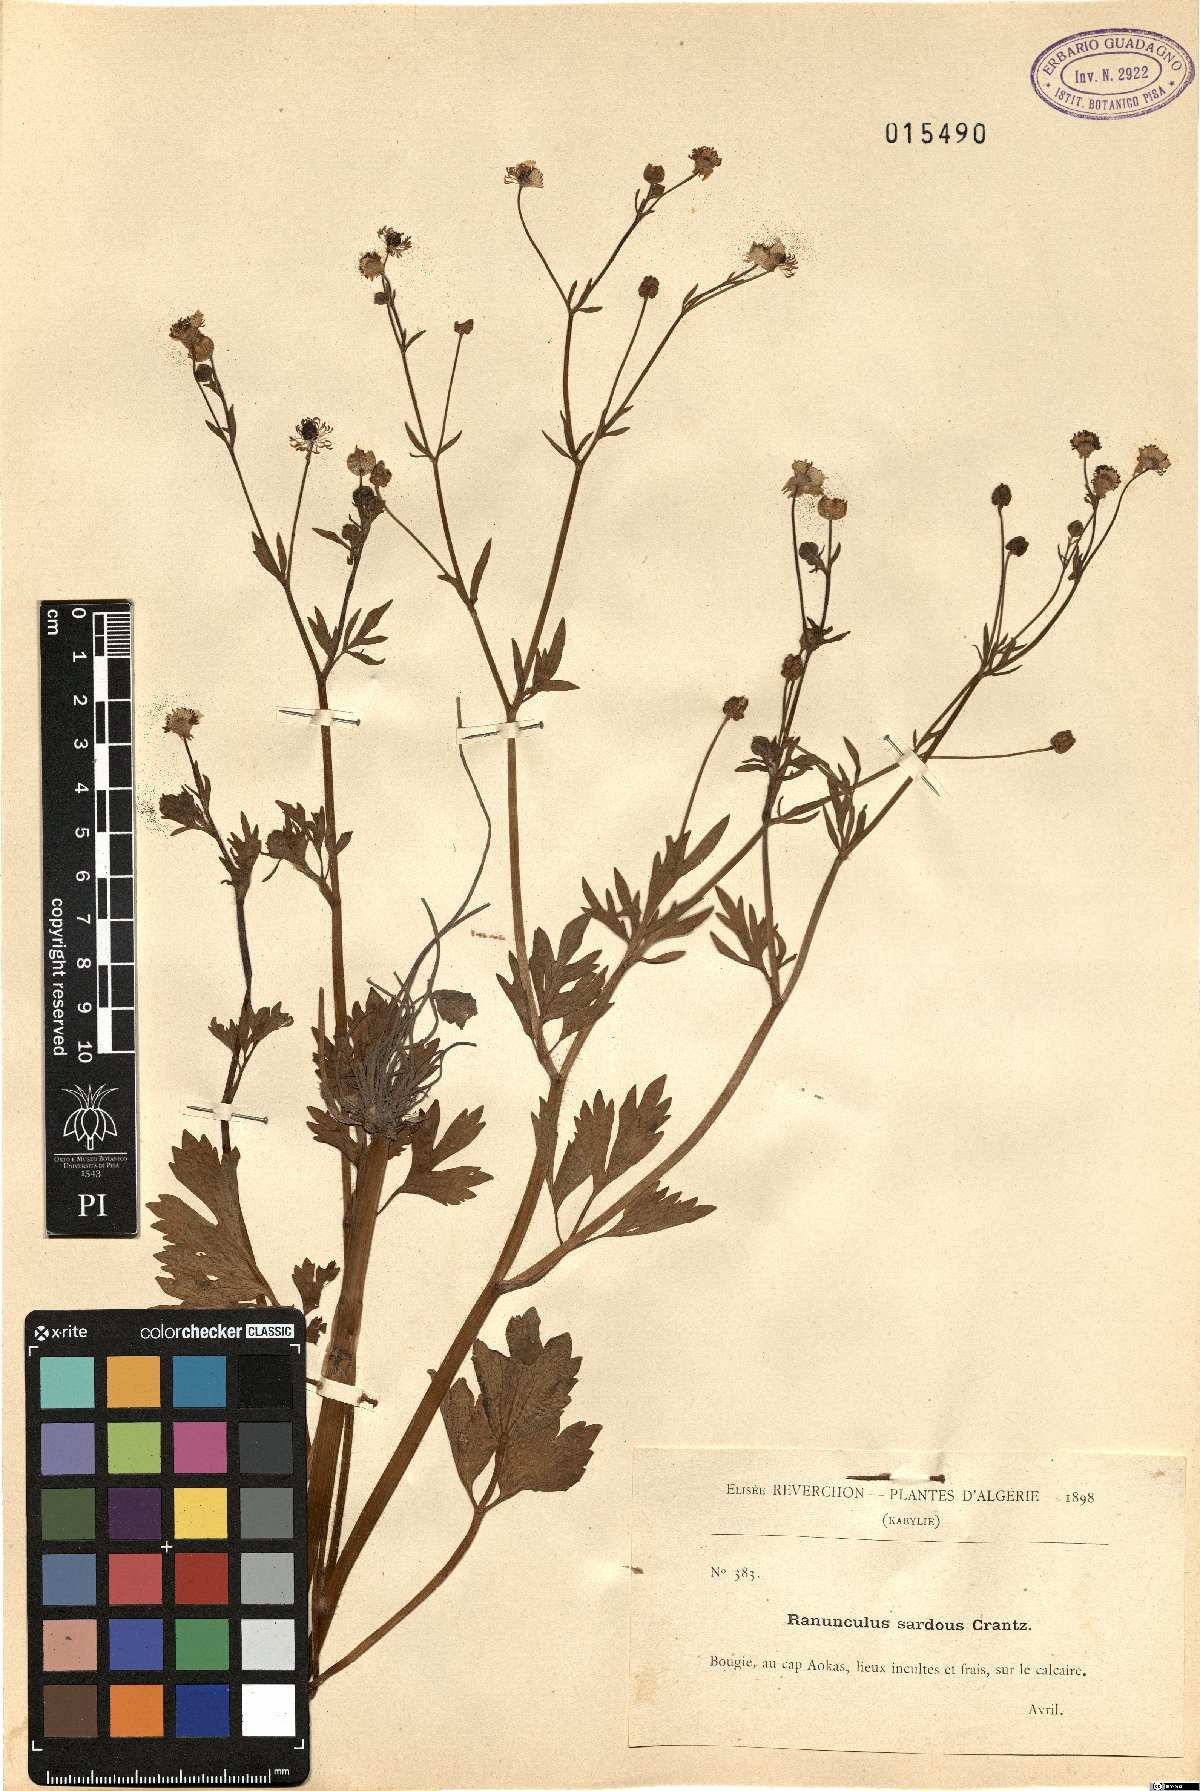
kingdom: Plantae
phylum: Tracheophyta
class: Magnoliopsida
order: Ranunculales
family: Ranunculaceae
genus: Ranunculus
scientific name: Ranunculus sardous
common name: Hairy buttercup
